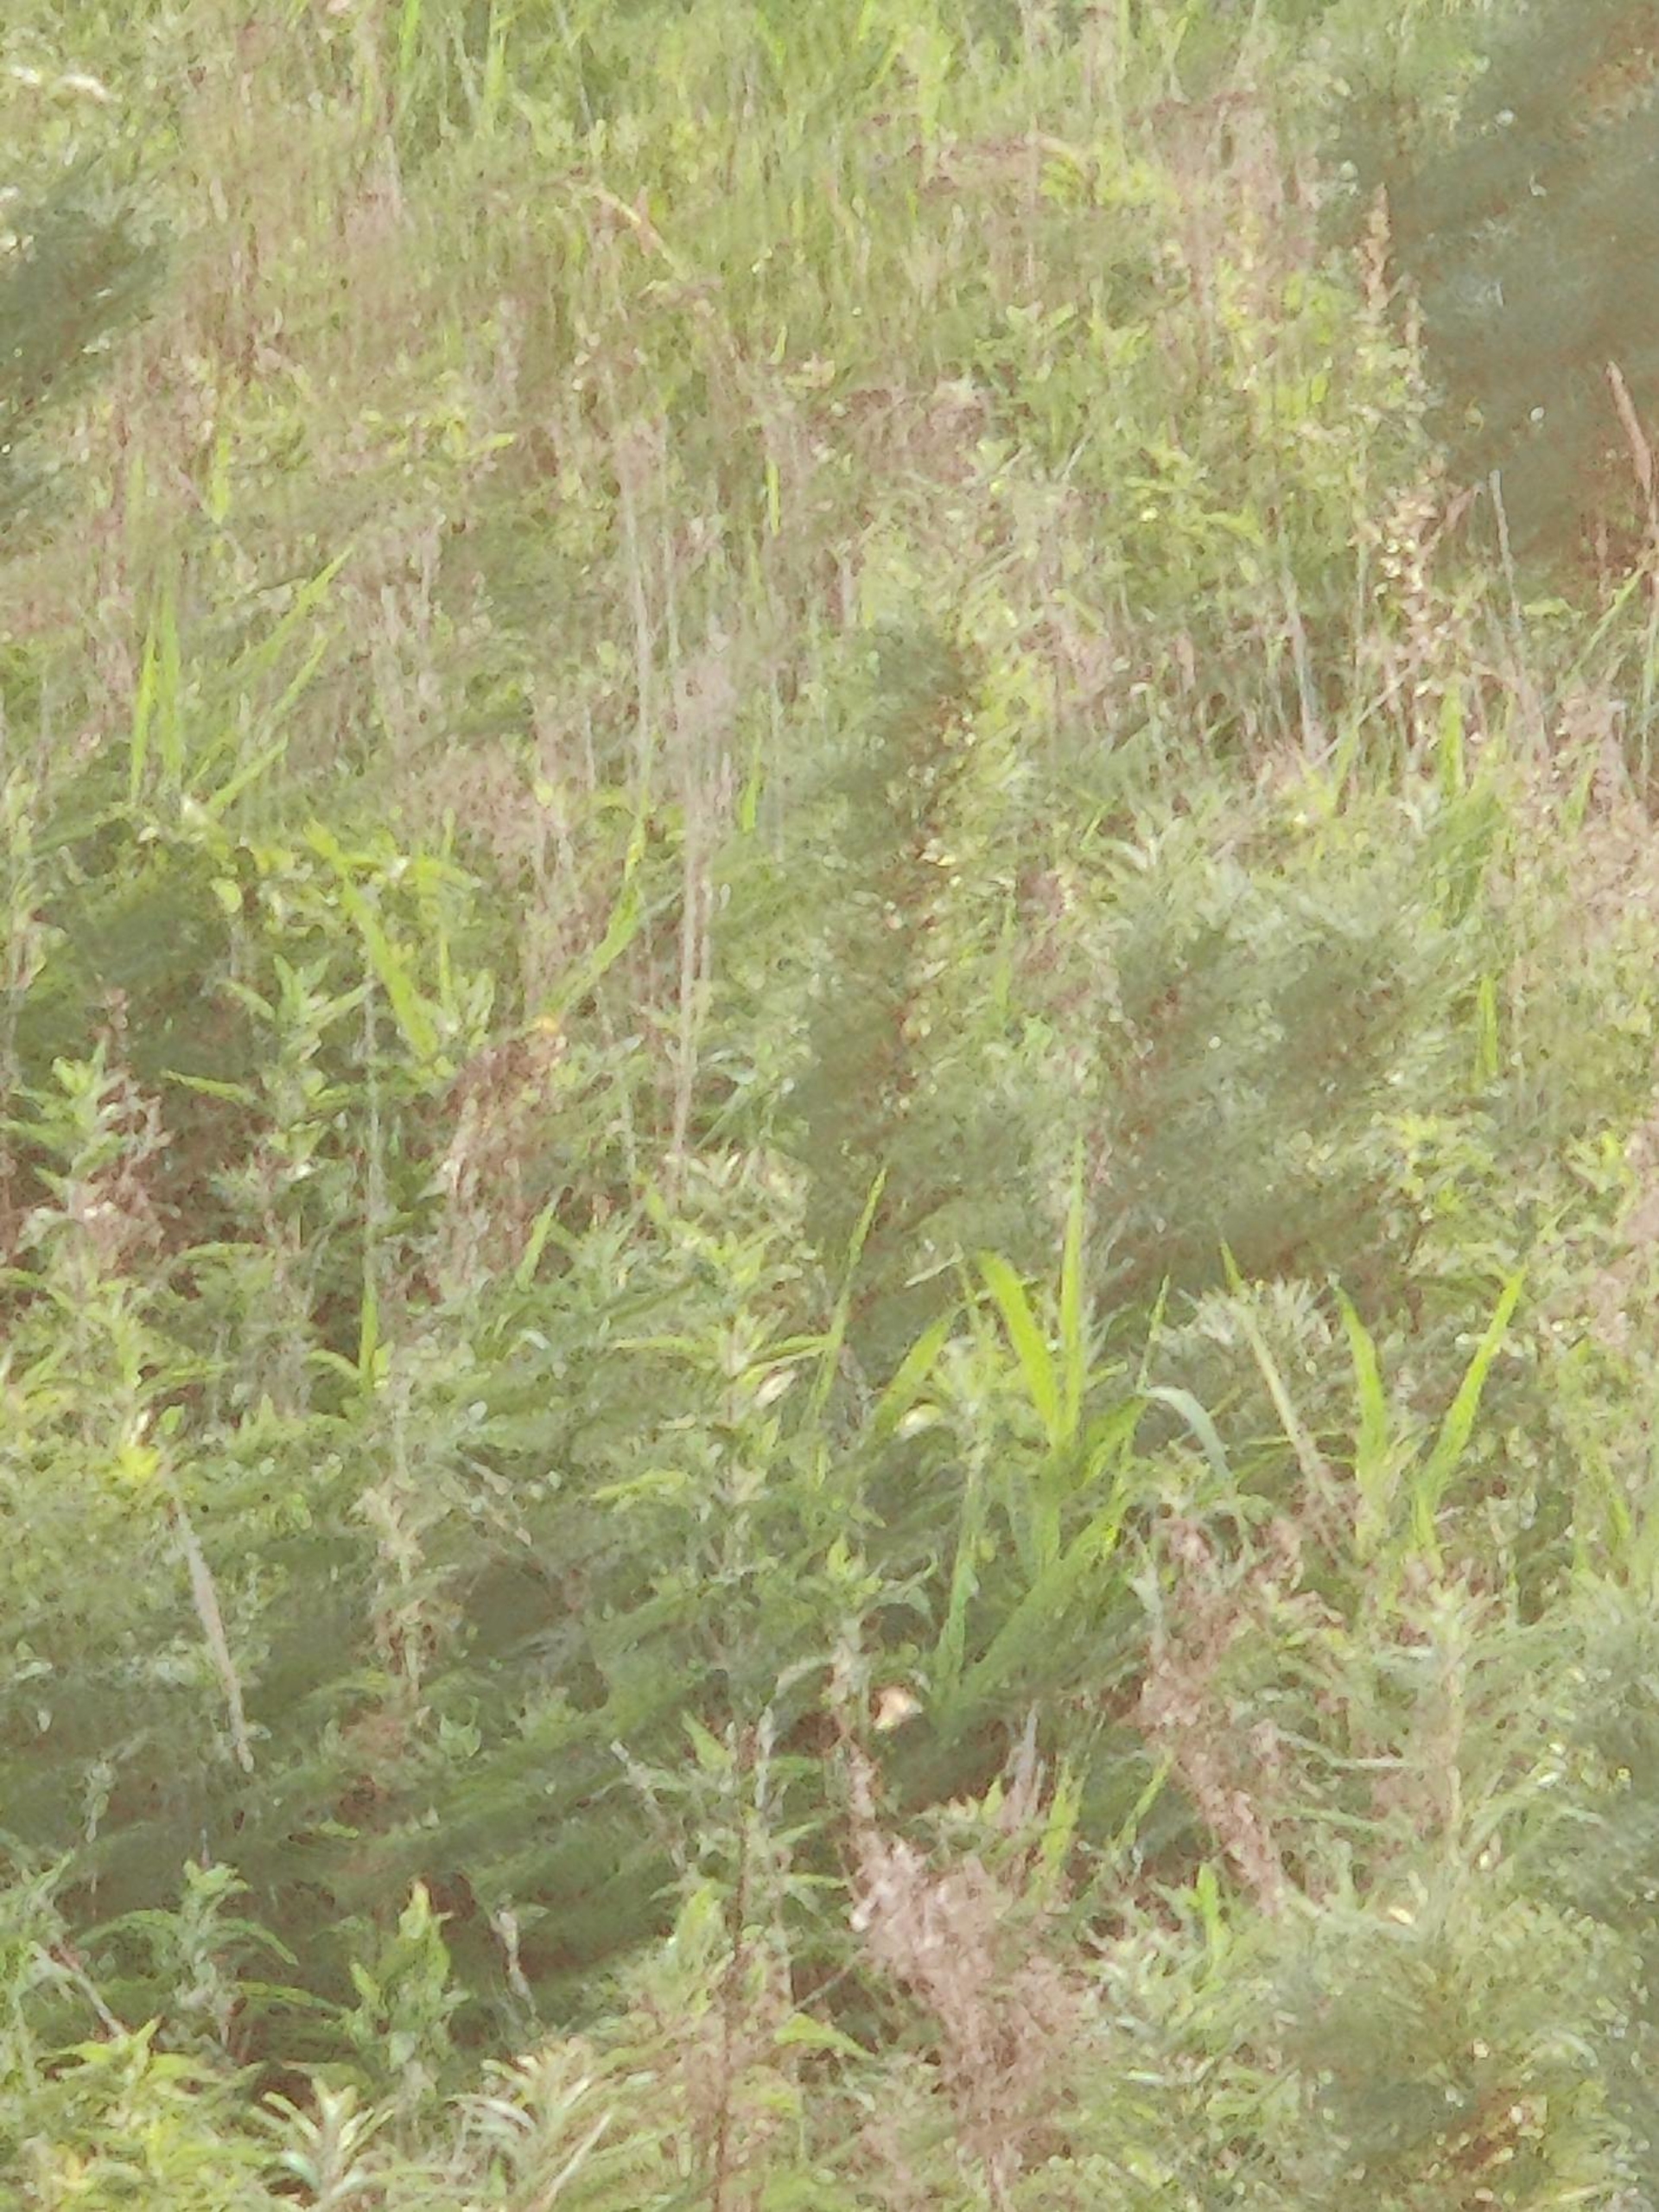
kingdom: Animalia
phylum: Chordata
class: Aves
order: Passeriformes
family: Emberizidae
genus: Emberiza
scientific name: Emberiza citrinella
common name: Gulspurv
